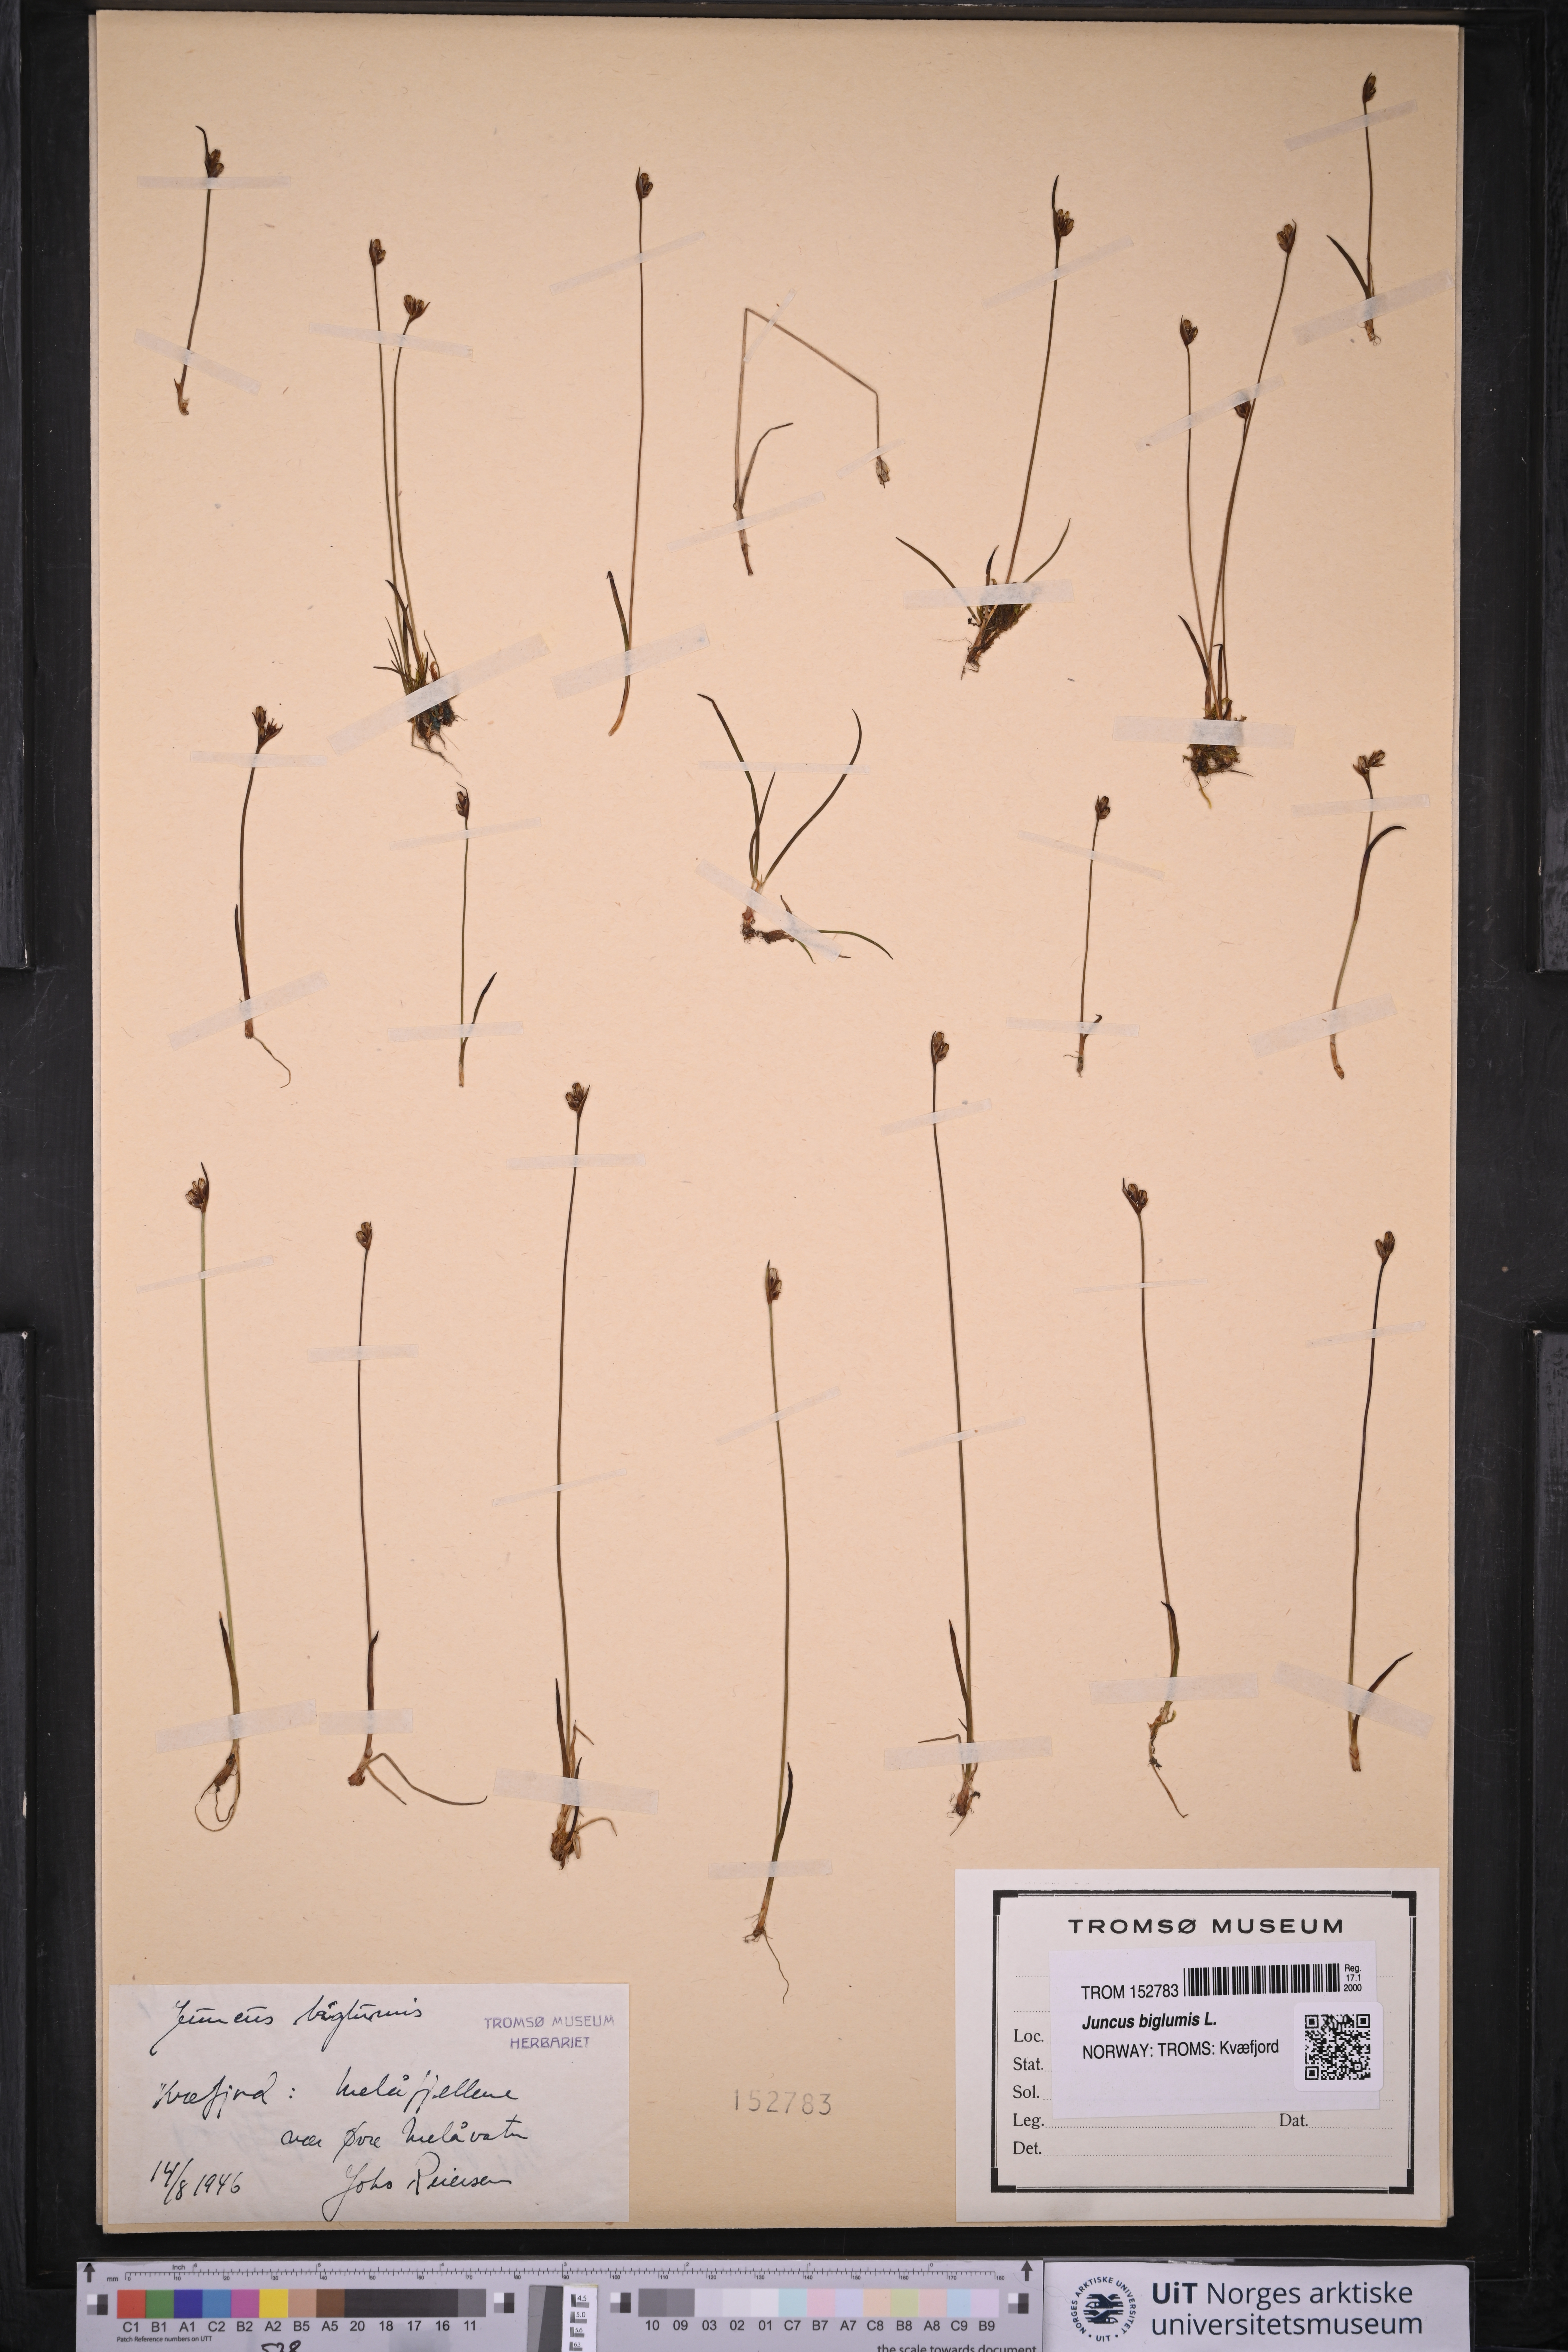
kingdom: Plantae
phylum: Tracheophyta
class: Liliopsida
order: Poales
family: Juncaceae
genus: Juncus
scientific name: Juncus biglumis
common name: Two-flowered rush
